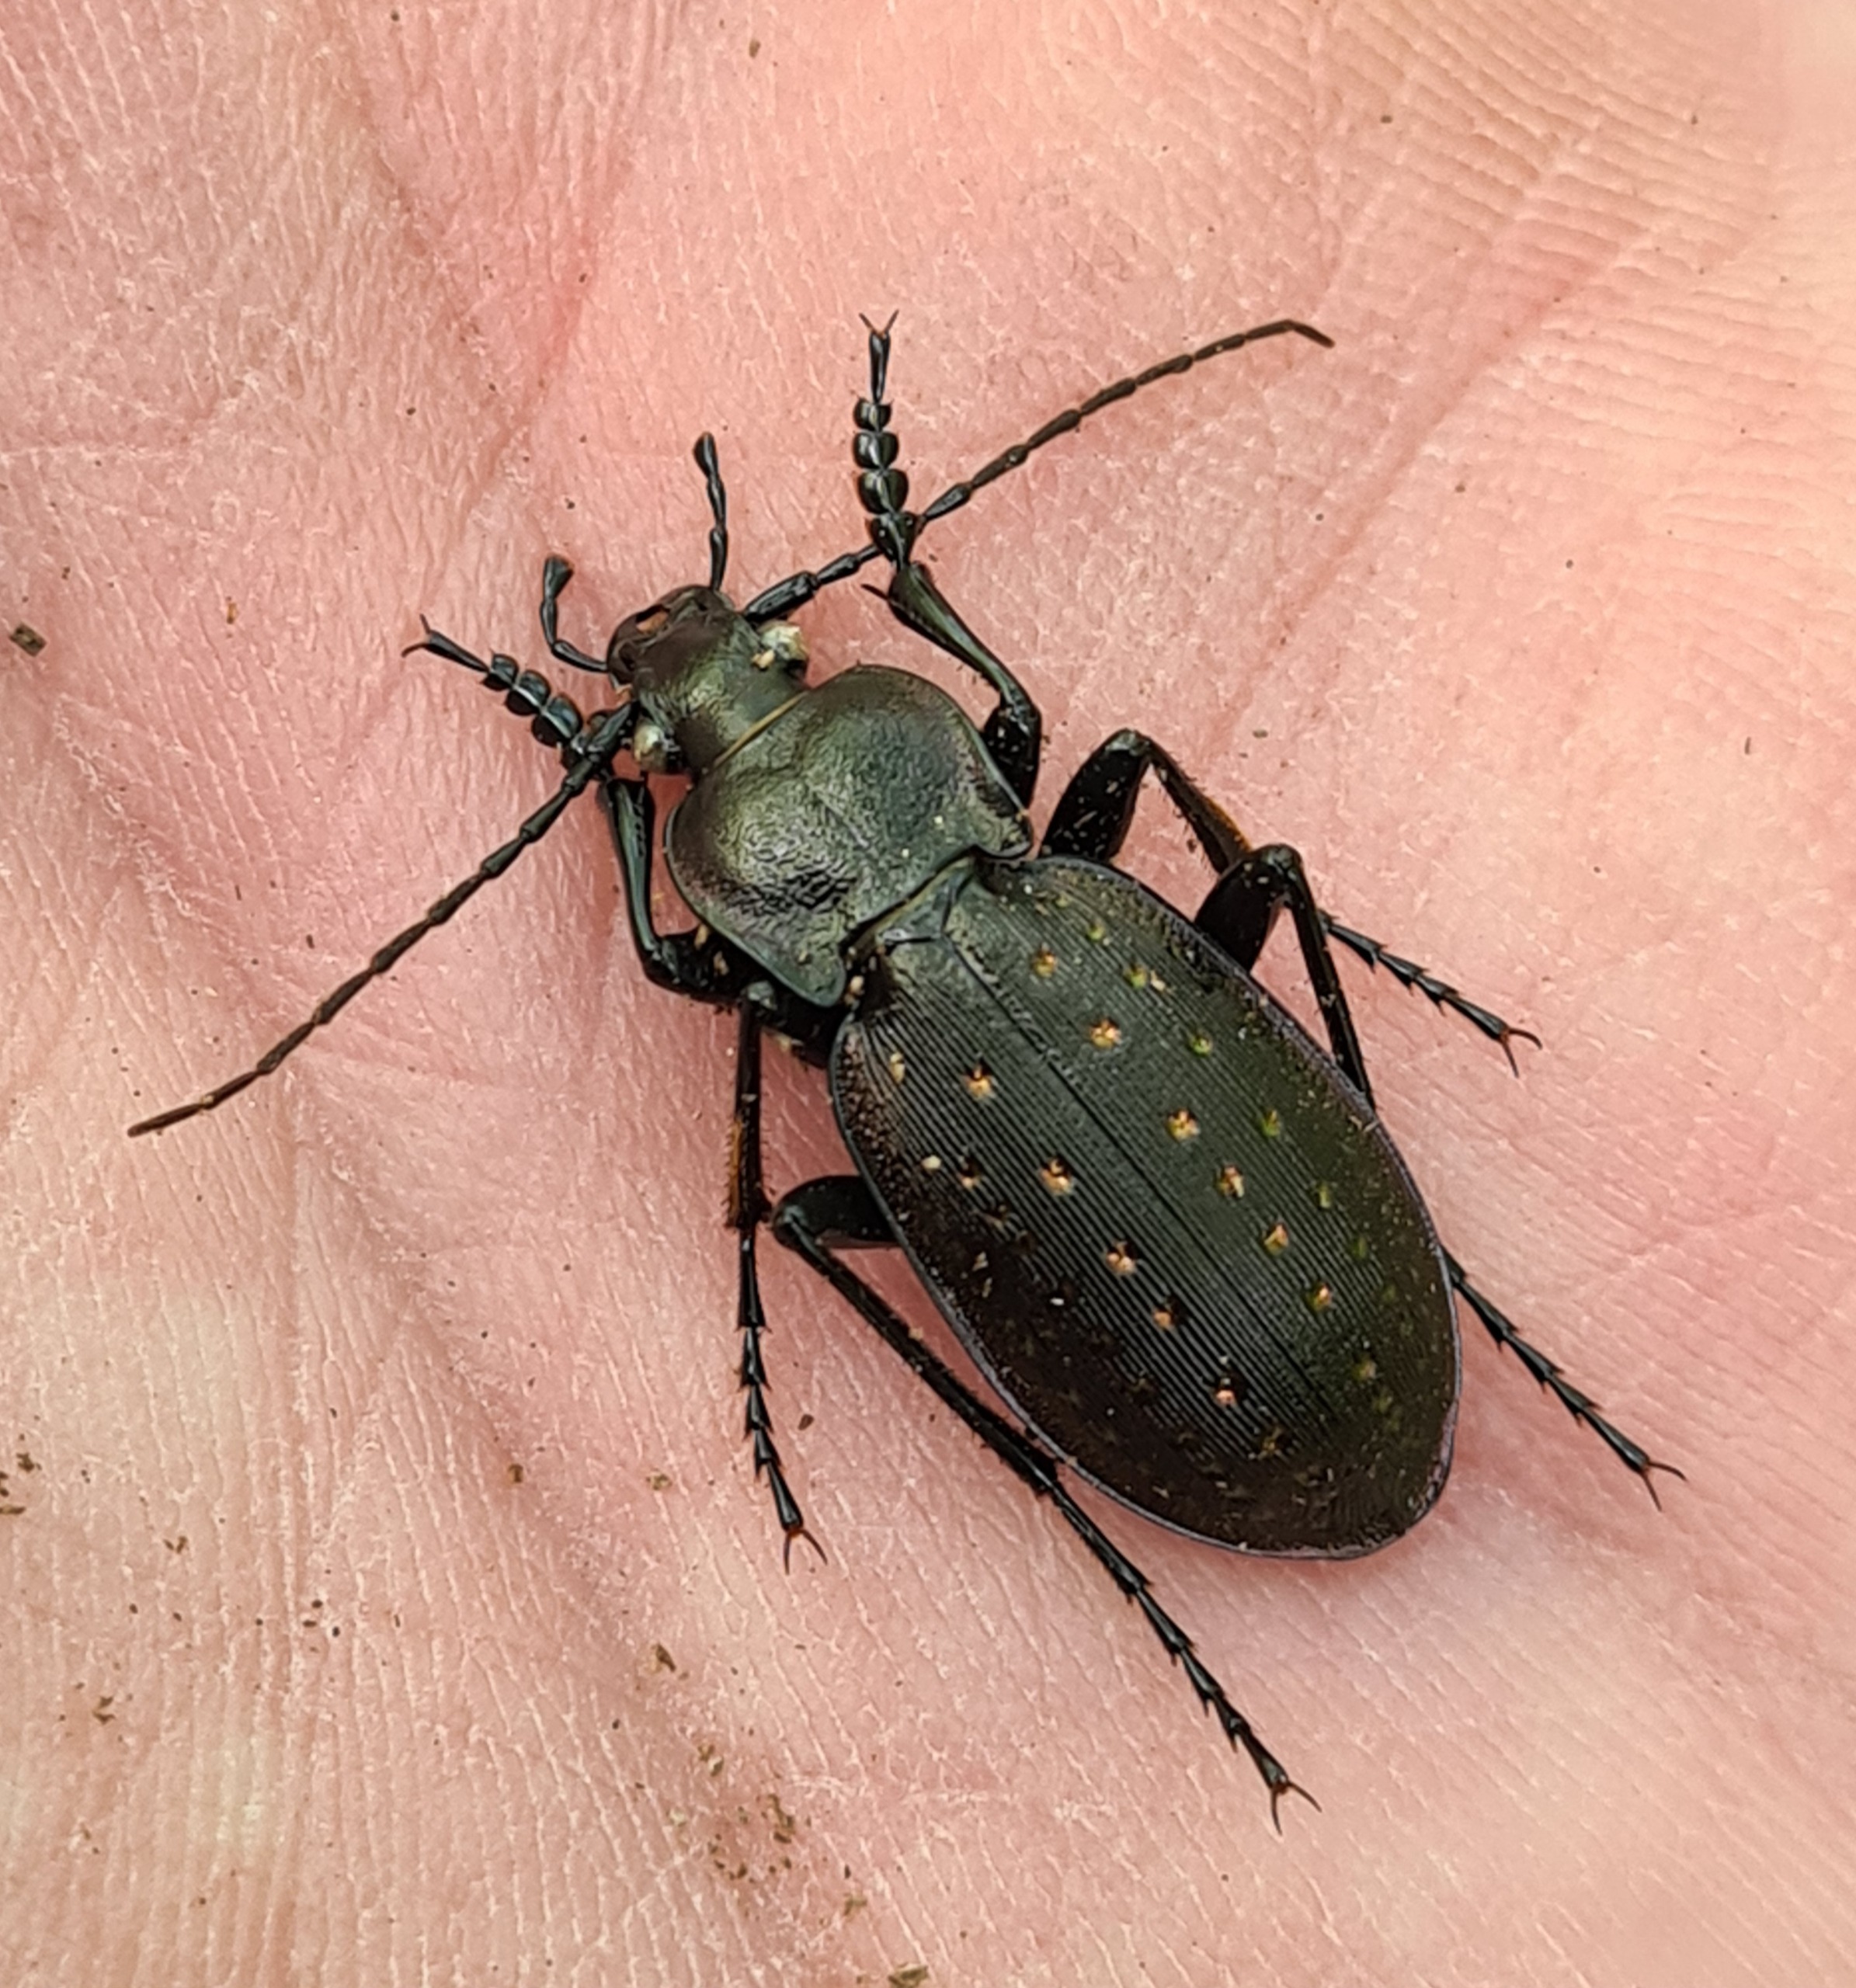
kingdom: Animalia
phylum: Arthropoda
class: Insecta
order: Coleoptera
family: Carabidae
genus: Carabus
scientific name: Carabus hortensis
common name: Guldpletløber
